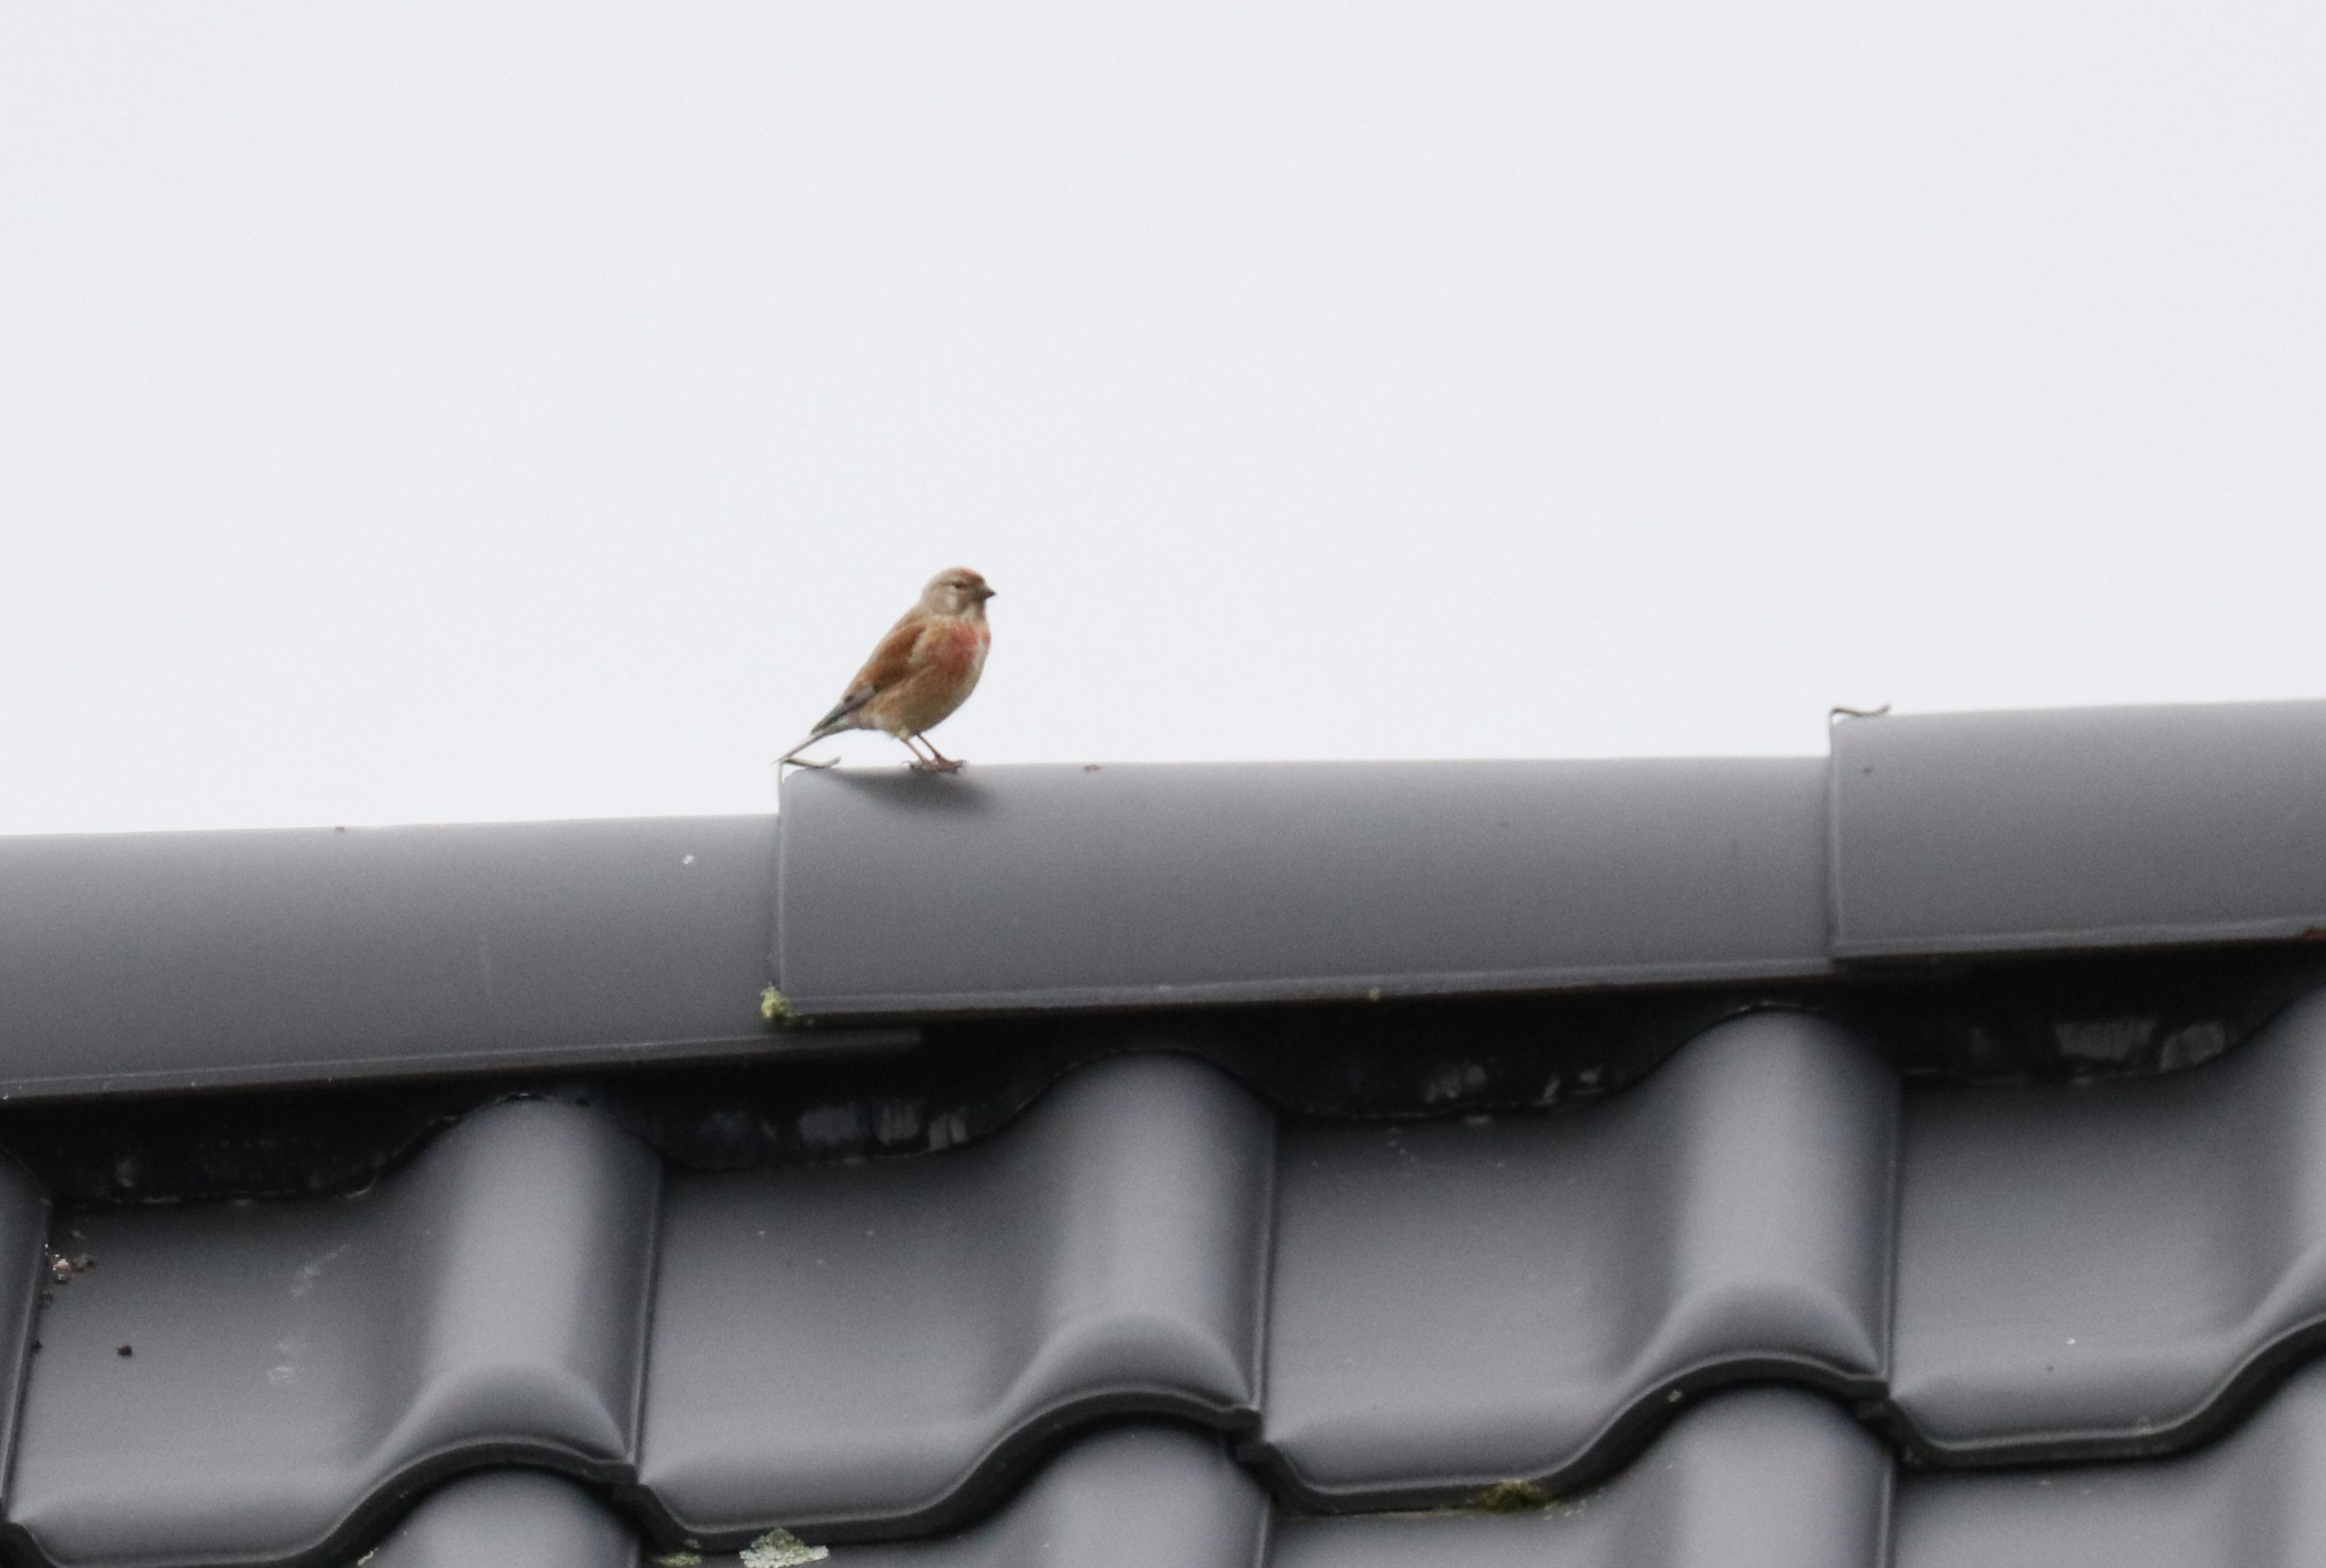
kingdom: Animalia
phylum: Chordata
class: Aves
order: Passeriformes
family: Fringillidae
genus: Linaria
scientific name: Linaria cannabina
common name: Tornirisk
